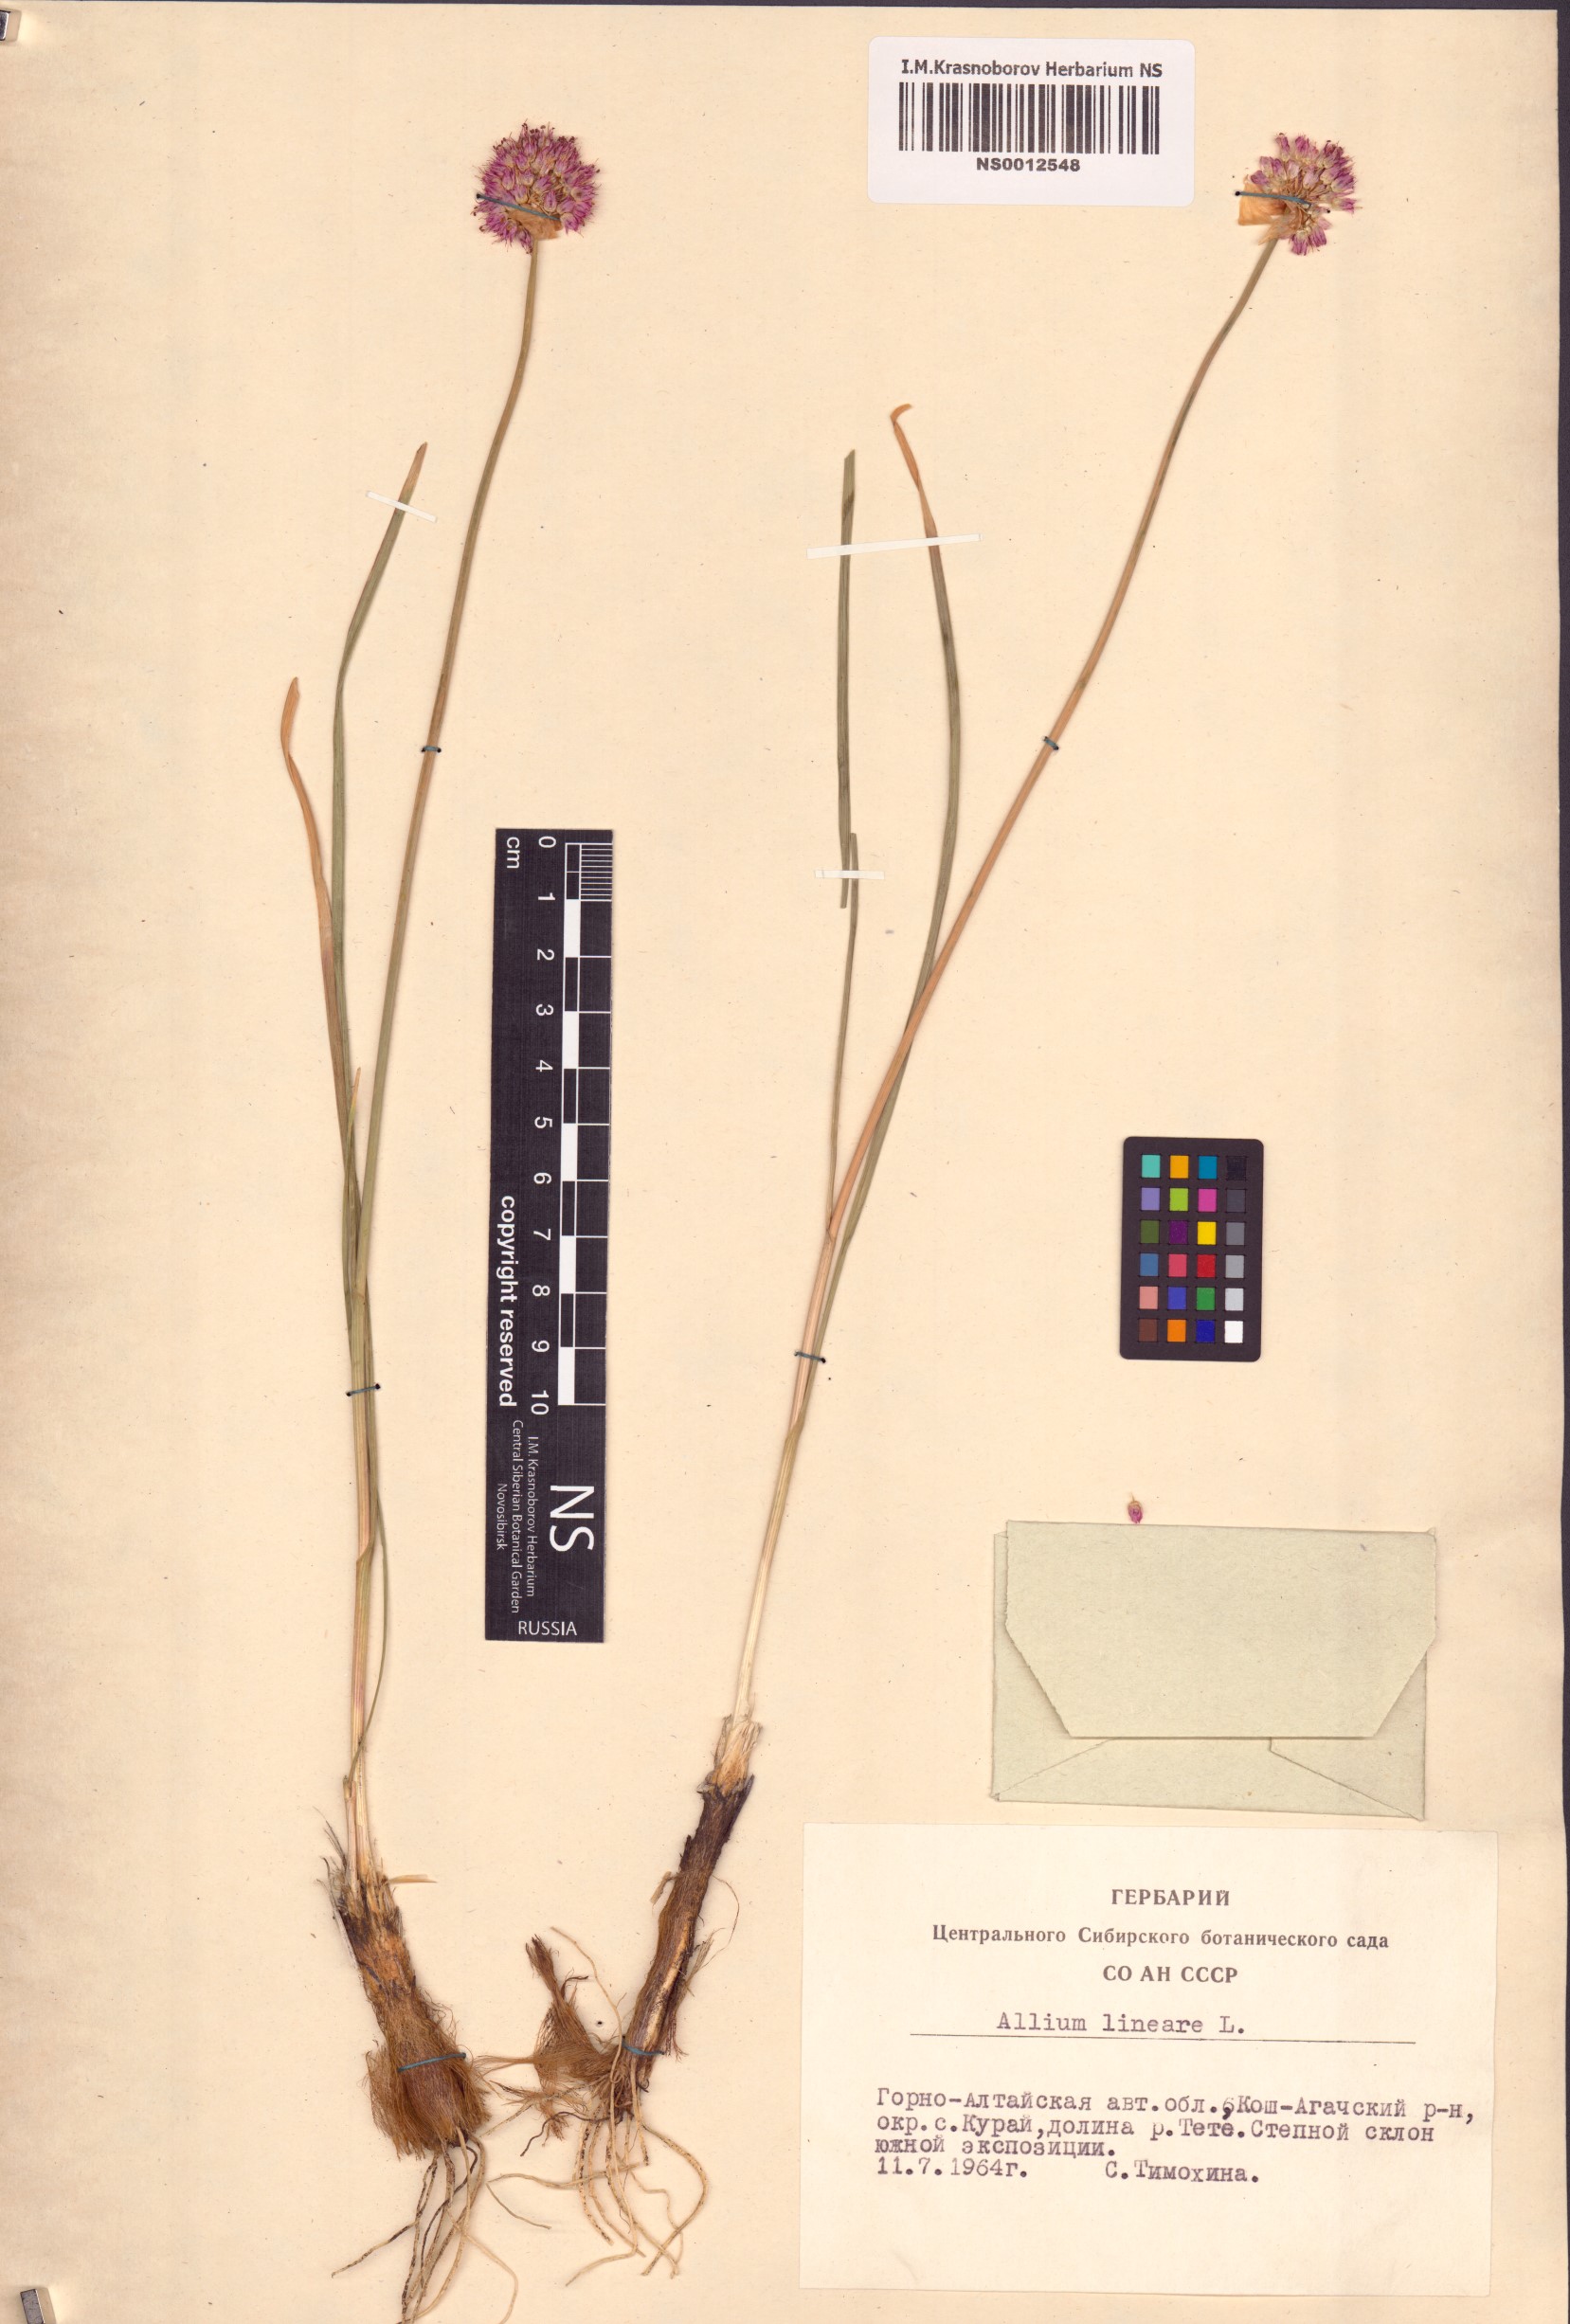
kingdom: Plantae
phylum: Tracheophyta
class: Liliopsida
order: Asparagales
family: Amaryllidaceae
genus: Allium
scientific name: Allium lineare
